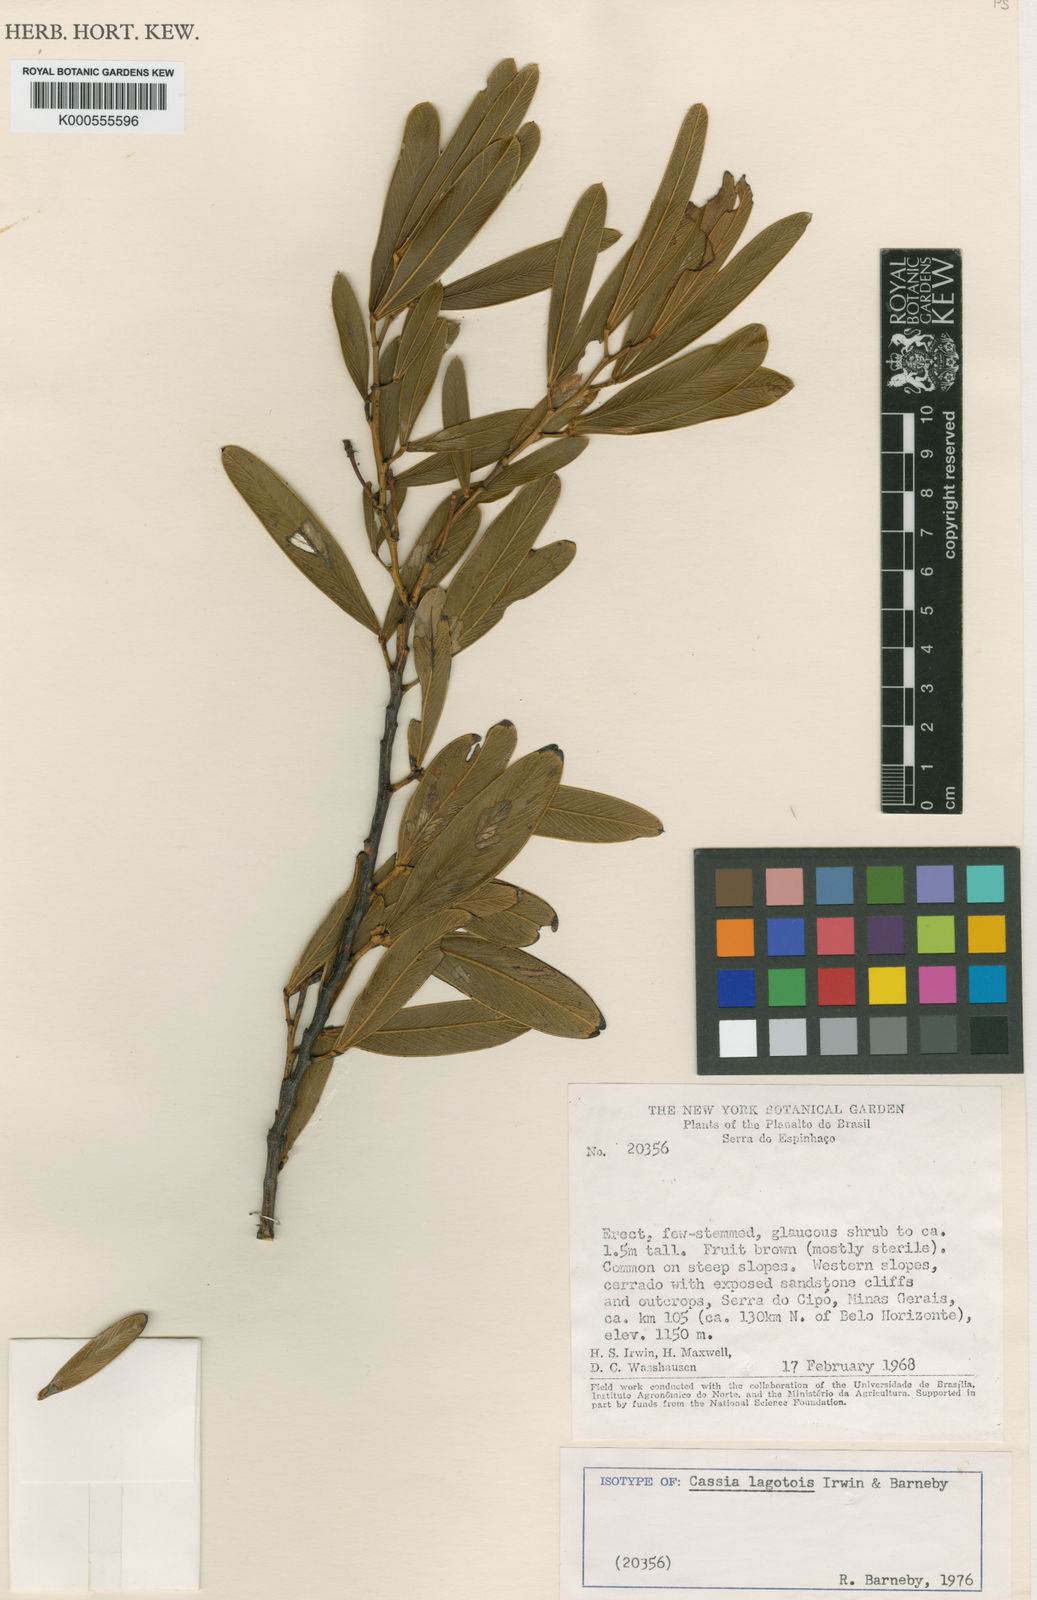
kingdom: Plantae
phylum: Tracheophyta
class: Magnoliopsida
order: Fabales
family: Fabaceae
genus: Chamaecrista
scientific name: Chamaecrista lagotois
